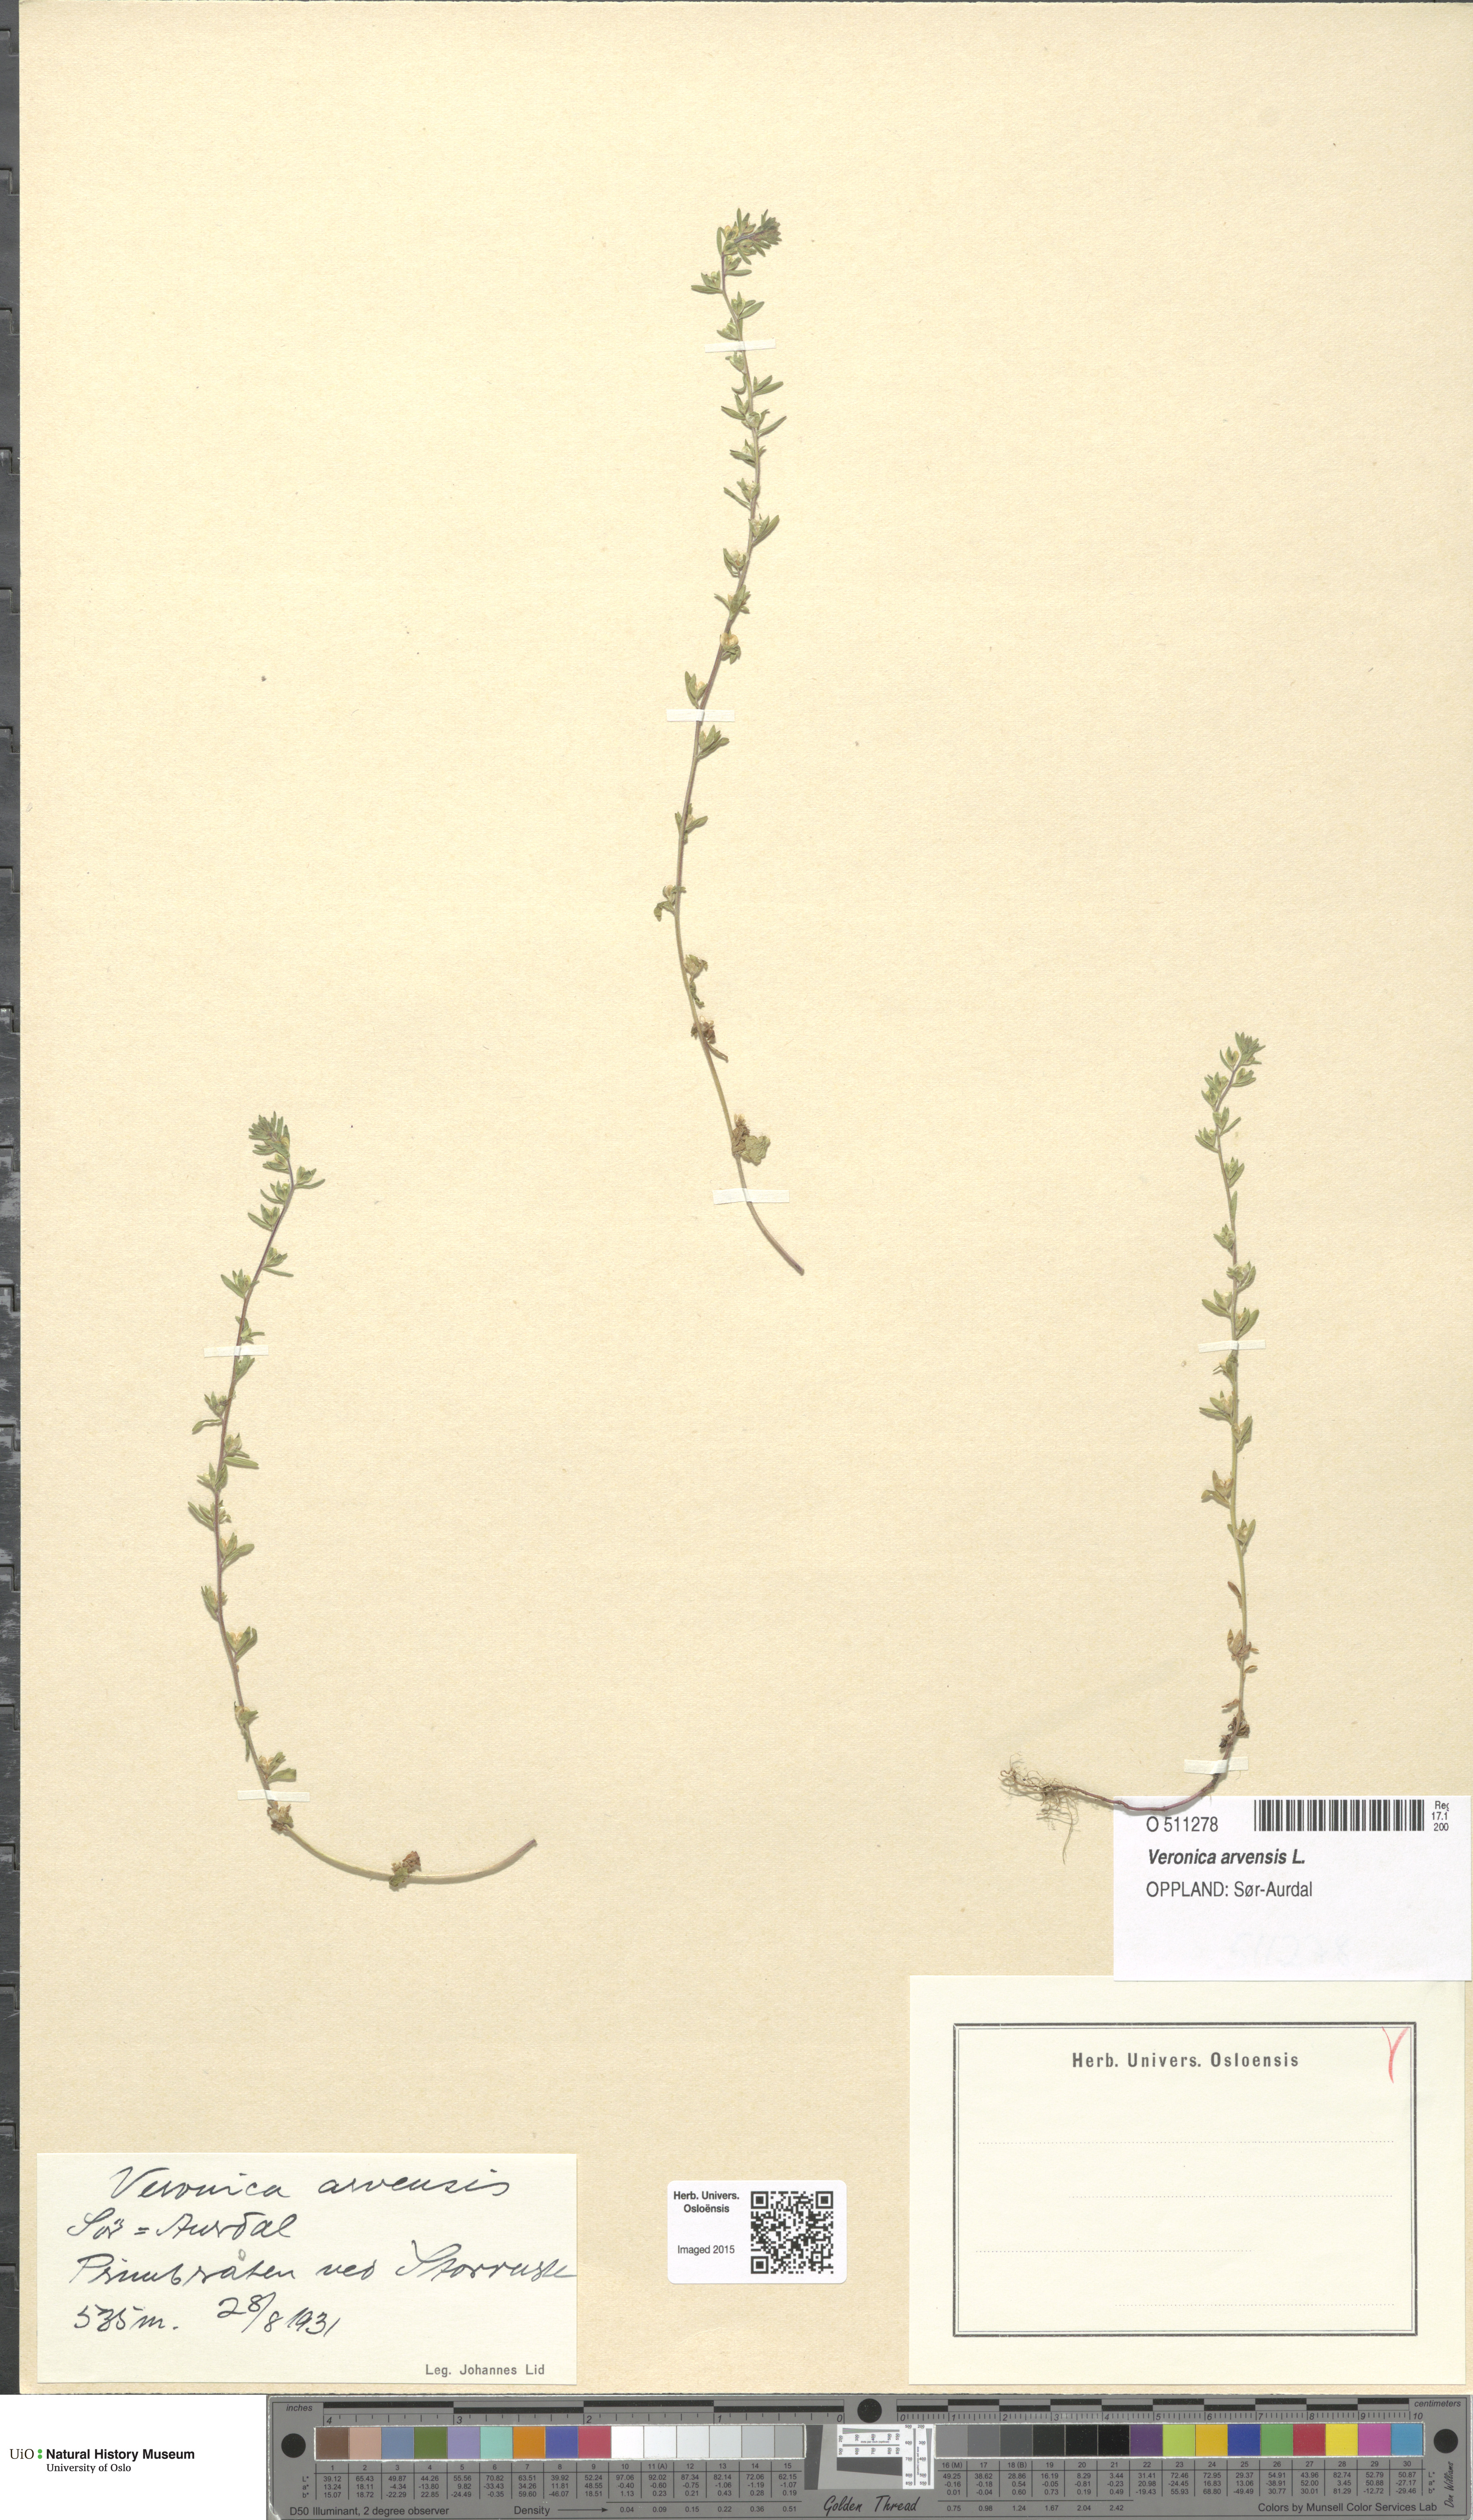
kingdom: Plantae
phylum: Tracheophyta
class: Magnoliopsida
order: Lamiales
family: Plantaginaceae
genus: Veronica
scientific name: Veronica arvensis
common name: Corn speedwell
